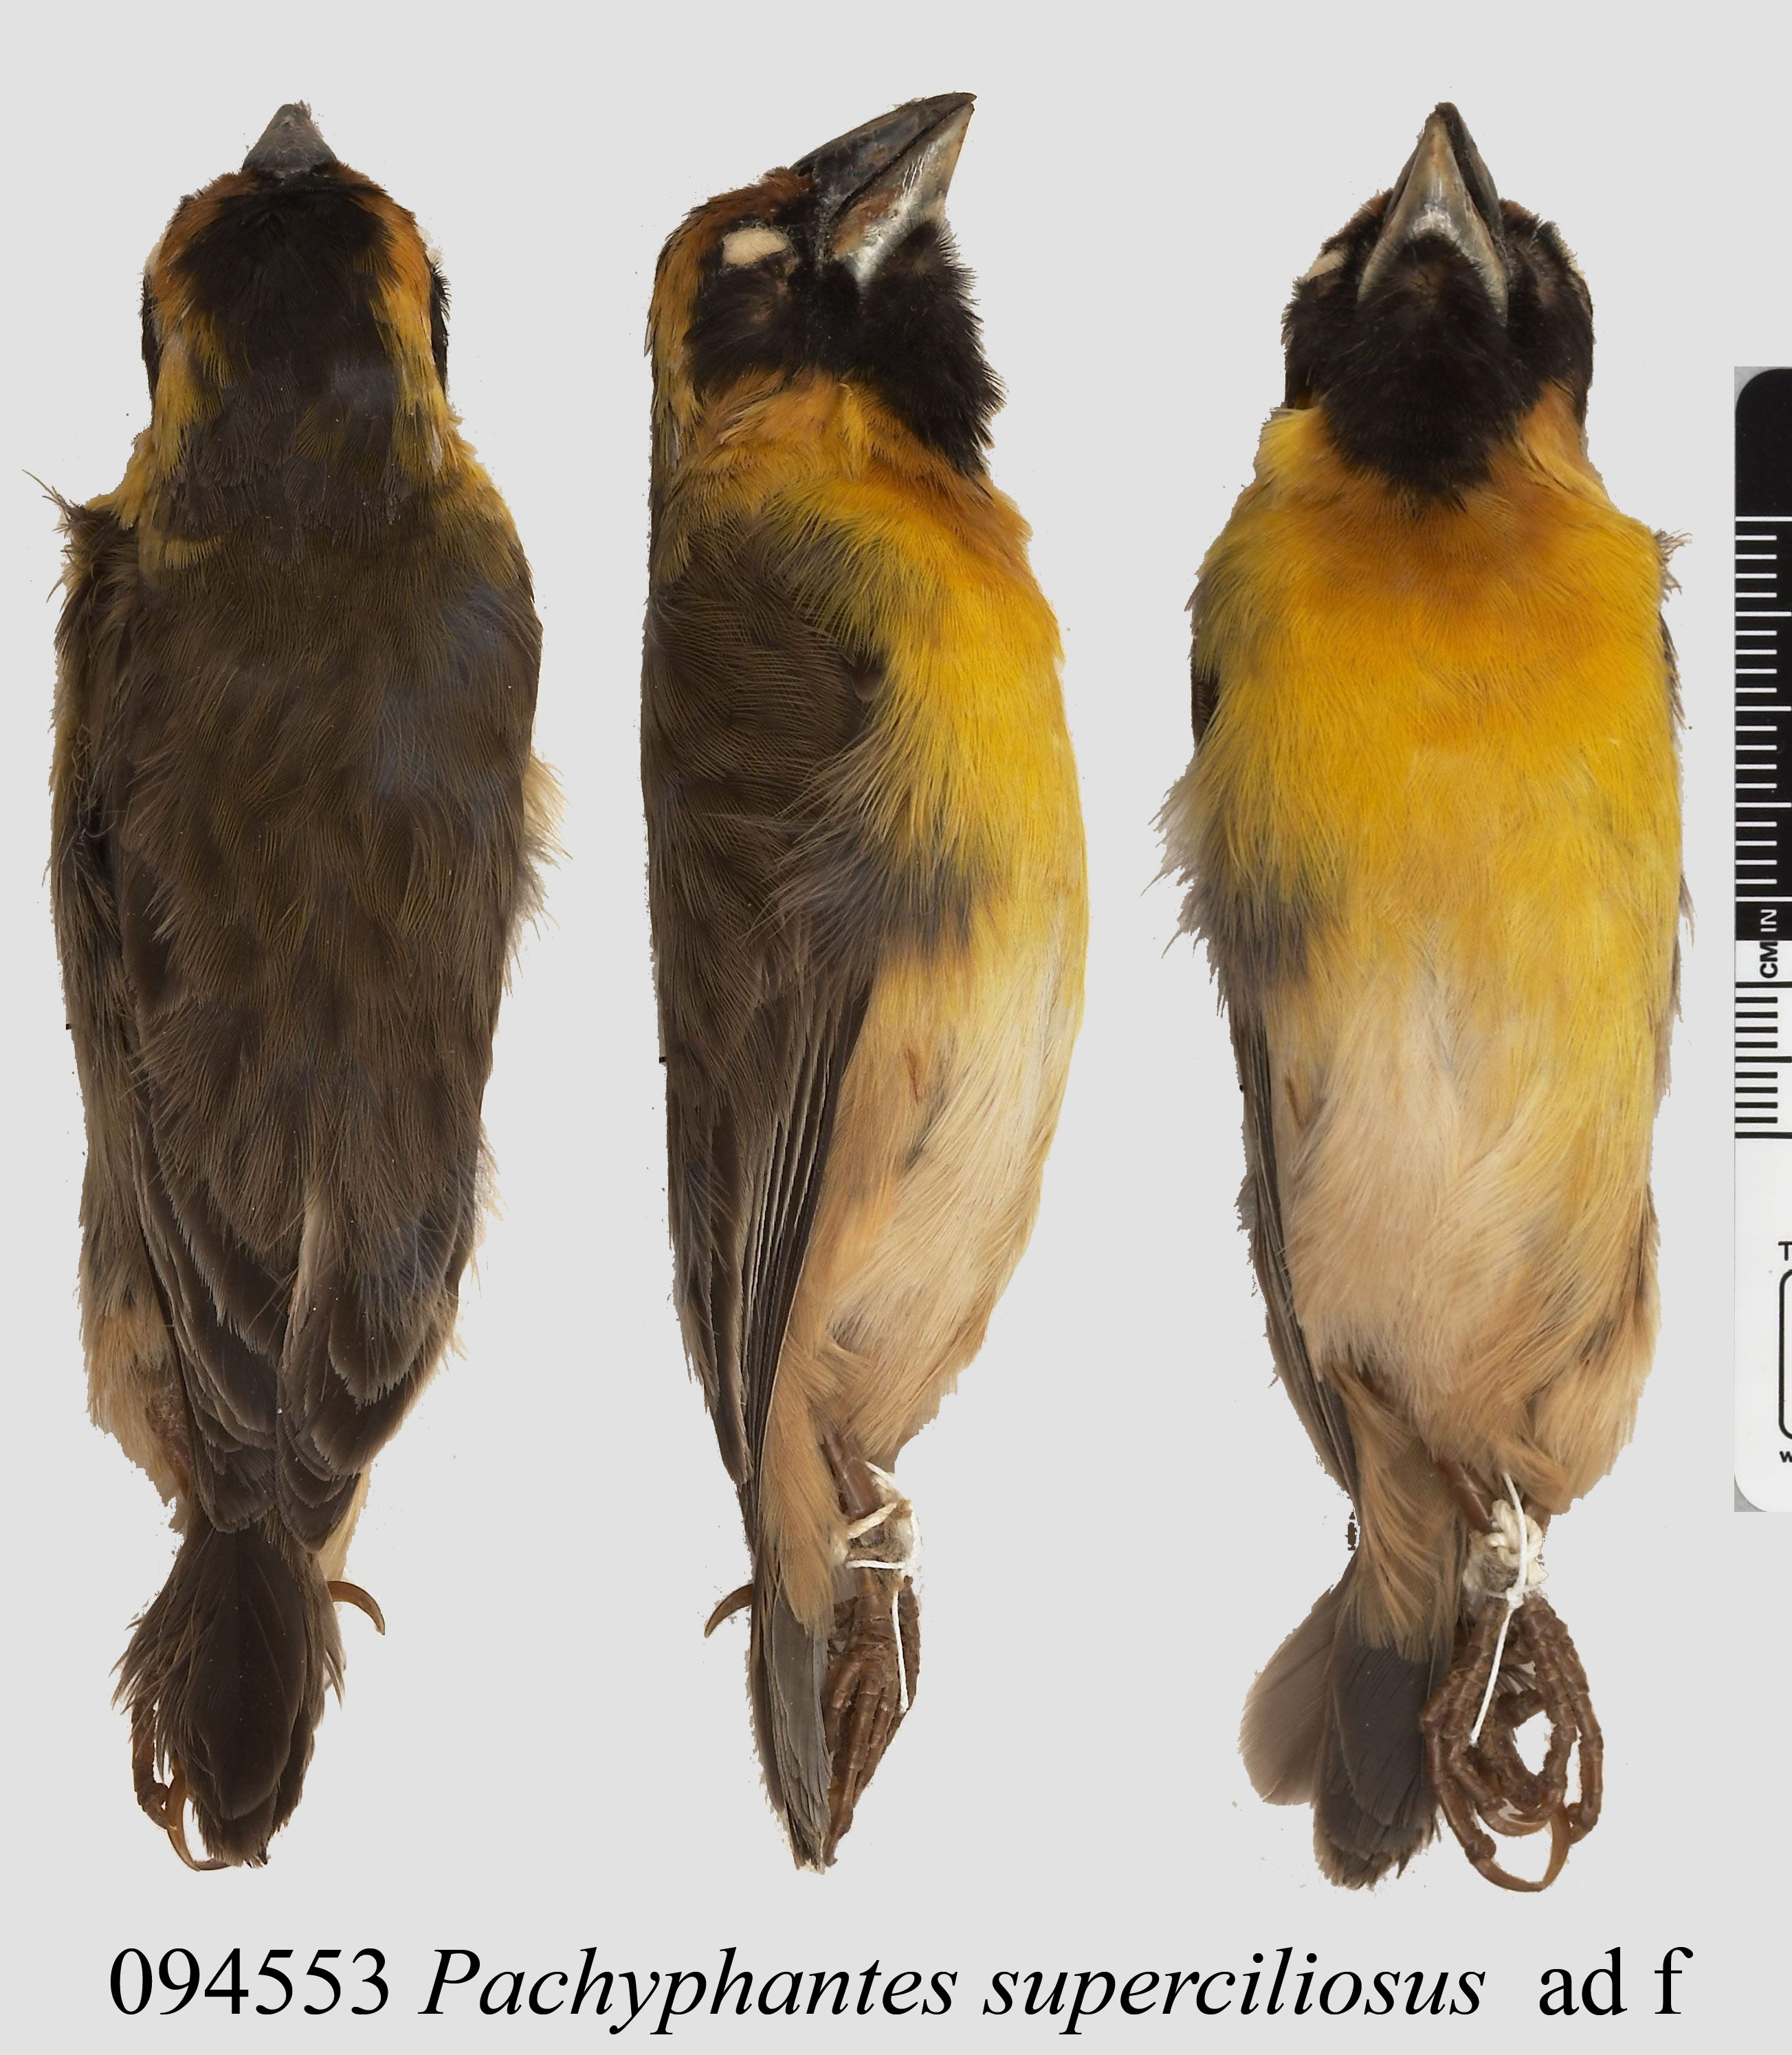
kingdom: Animalia
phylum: Chordata
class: Aves
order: Passeriformes
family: Ploceidae
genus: Ploceus
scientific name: Ploceus superciliosus
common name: Compact weaver
